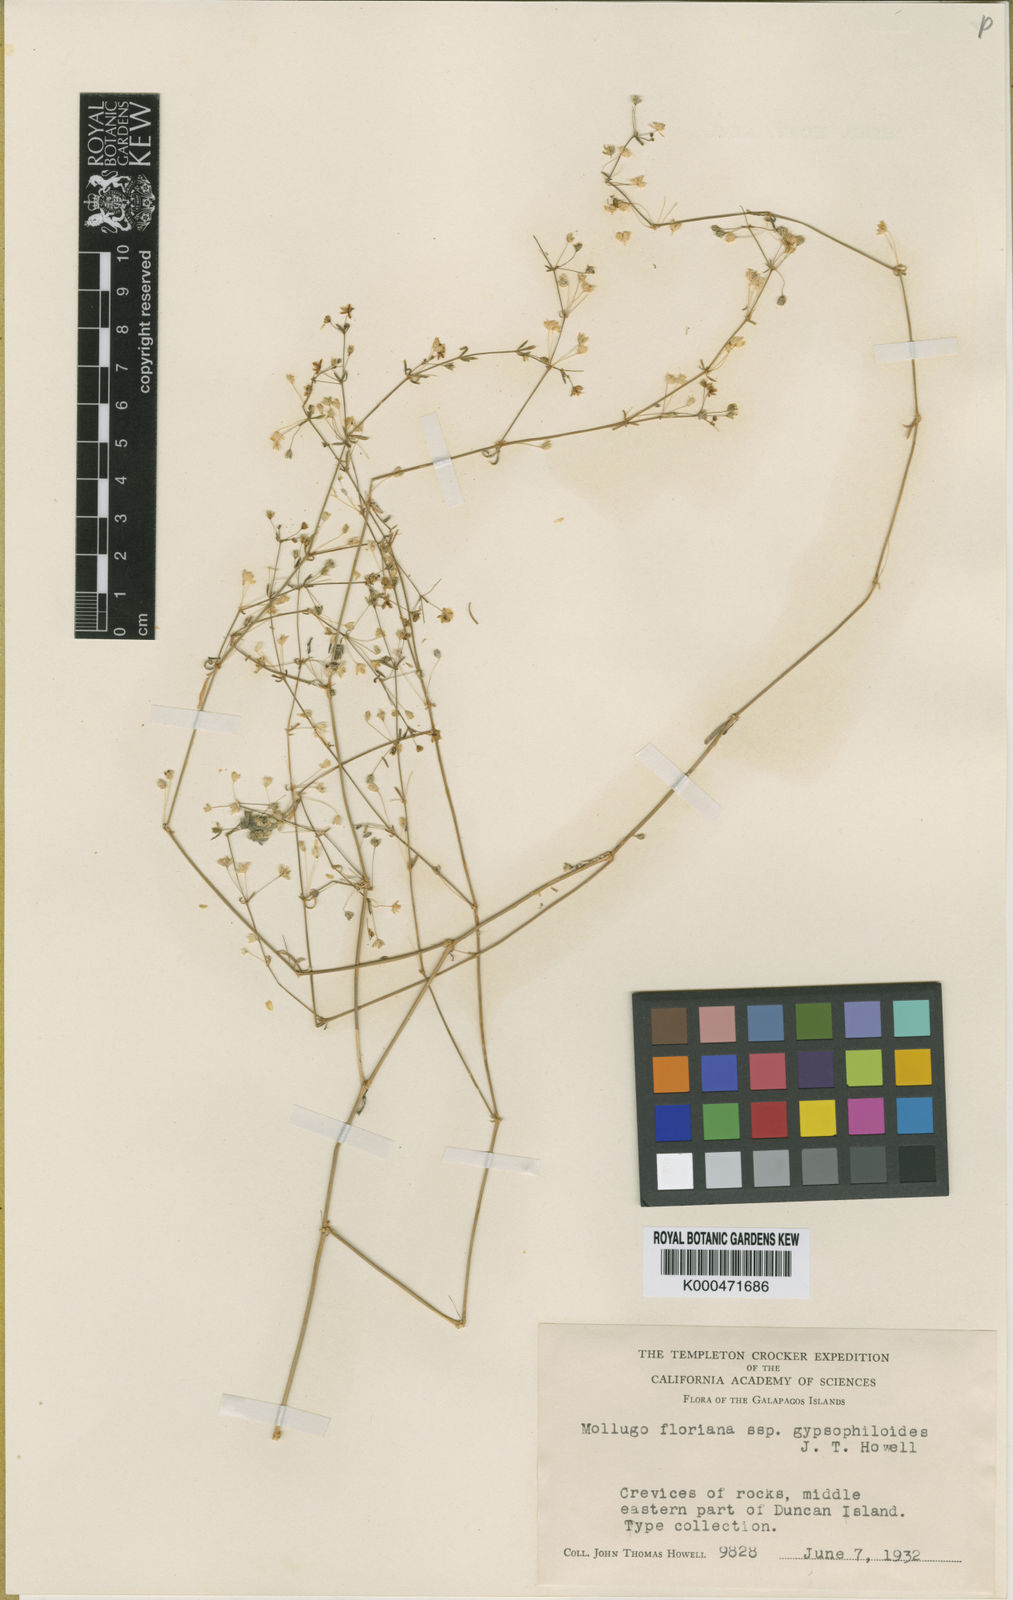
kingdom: Plantae
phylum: Tracheophyta
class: Magnoliopsida
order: Caryophyllales
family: Molluginaceae
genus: Mollugo
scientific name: Mollugo floriana
